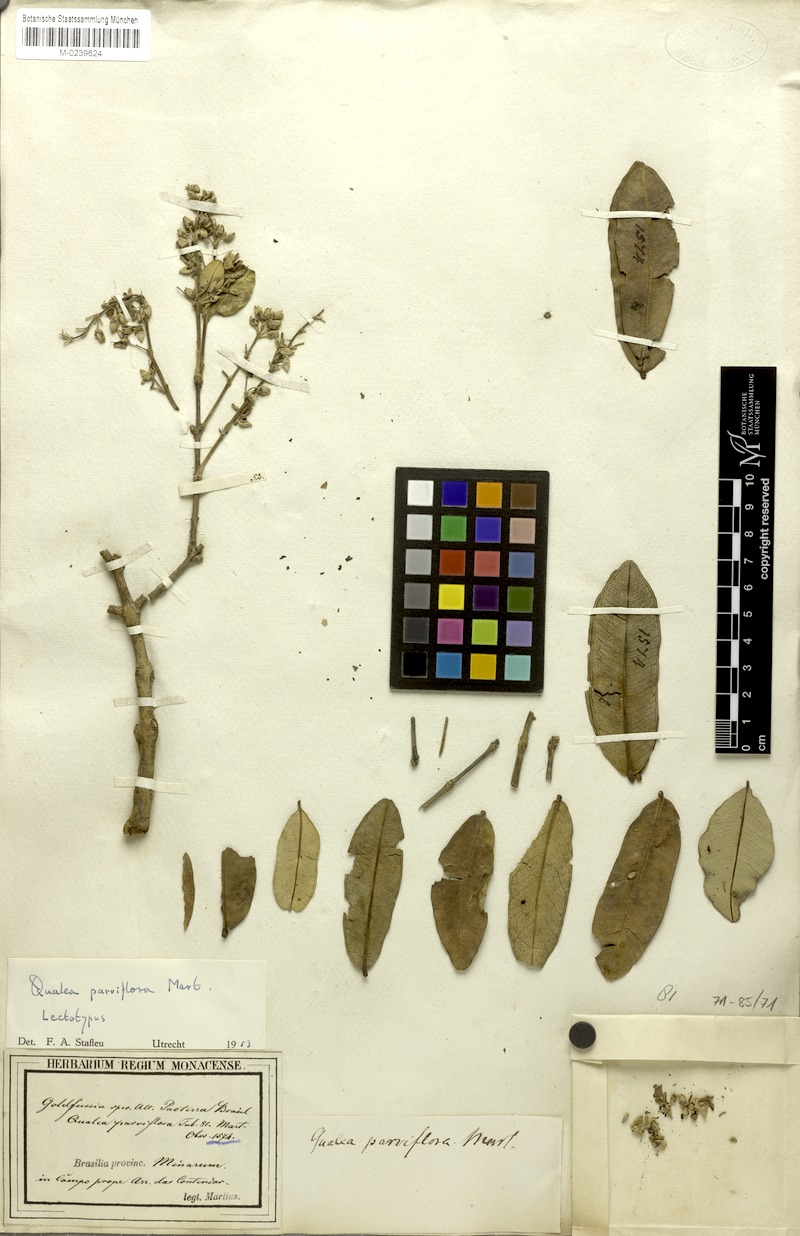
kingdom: Plantae
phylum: Tracheophyta
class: Magnoliopsida
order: Myrtales
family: Vochysiaceae
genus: Qualea
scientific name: Qualea parviflora
